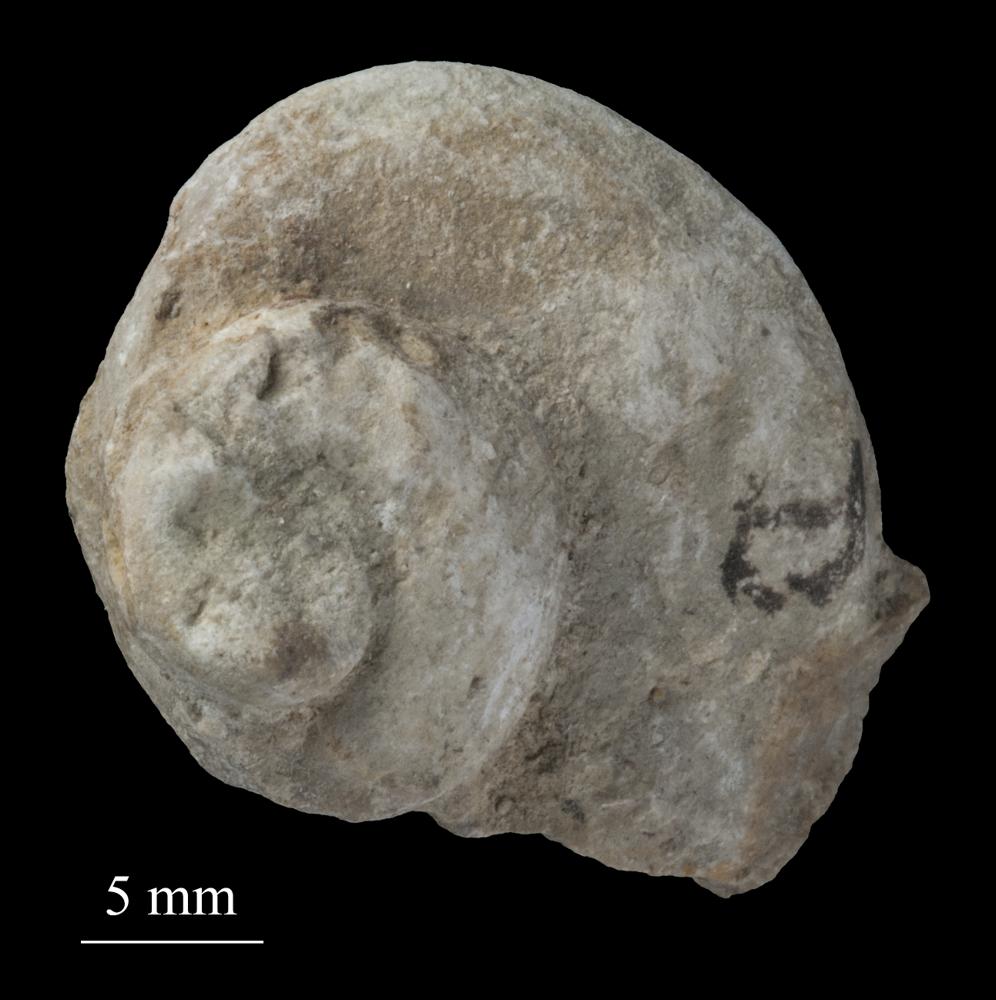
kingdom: Animalia
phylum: Mollusca
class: Gastropoda
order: Pleurotomariida
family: Phymatopleuridae
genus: Worthenia
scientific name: Worthenia
